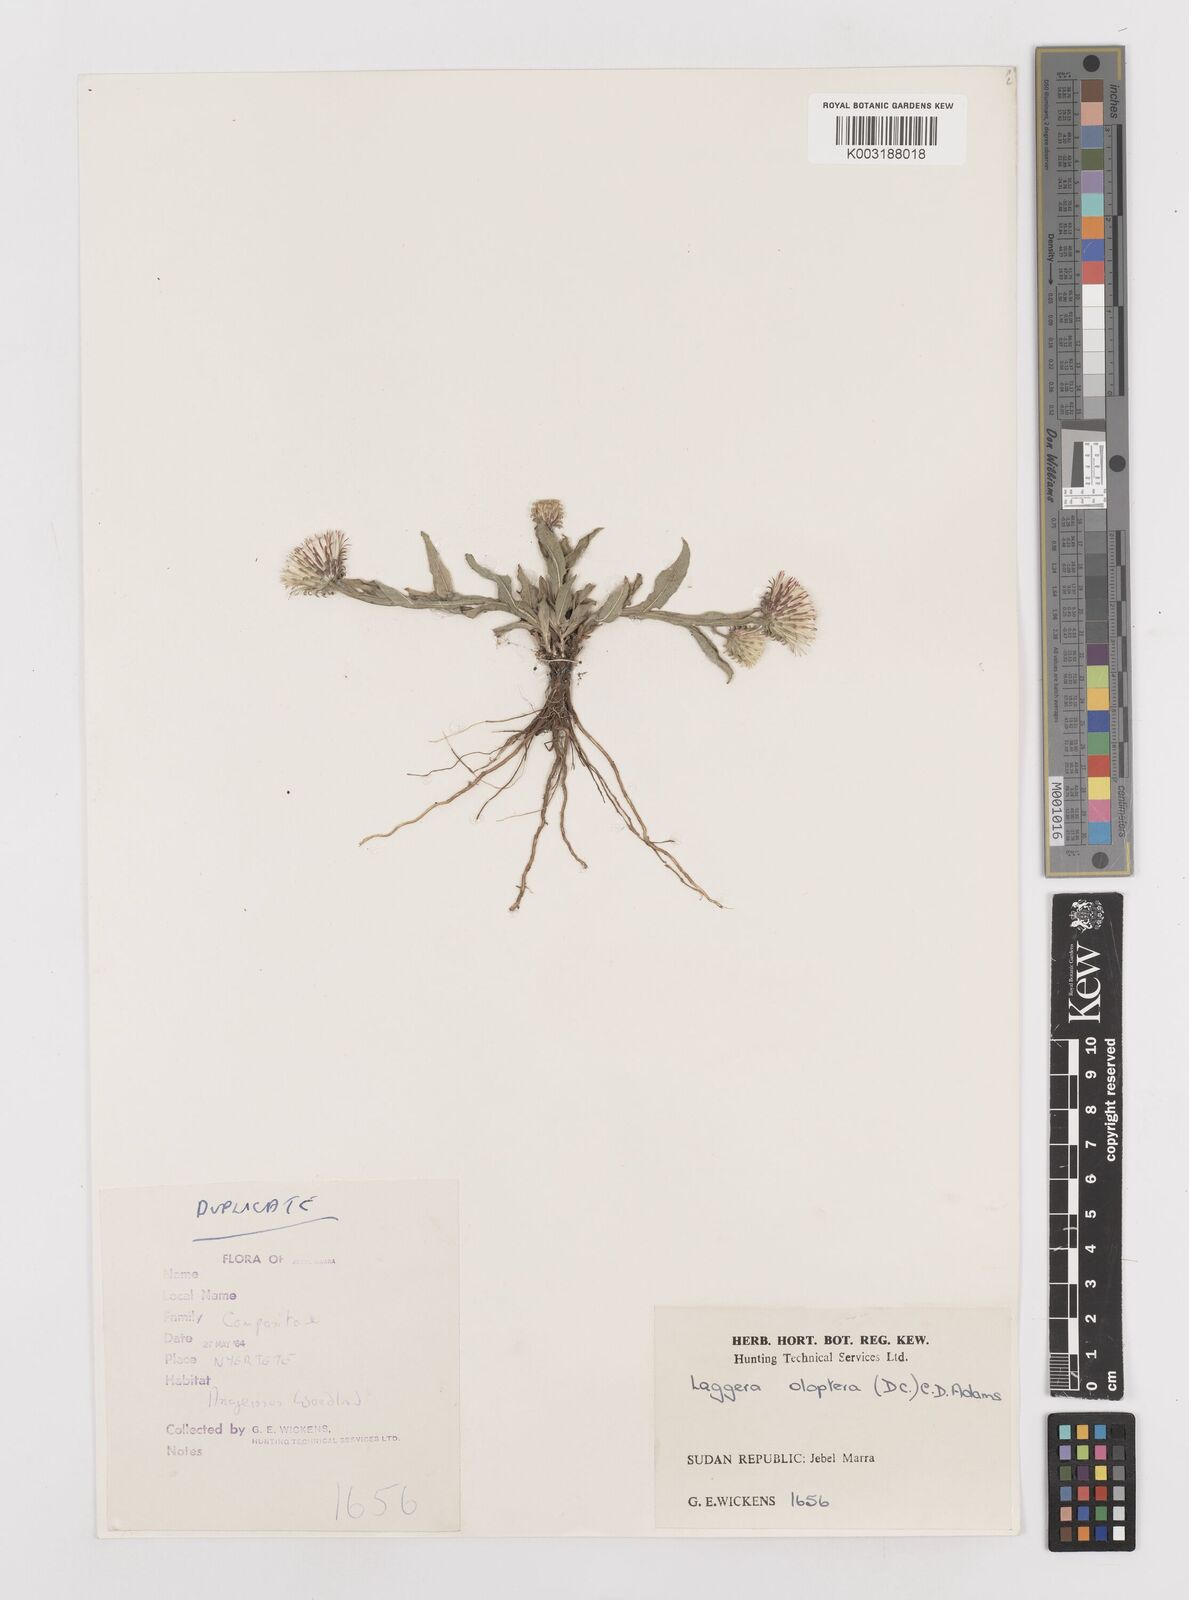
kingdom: Plantae
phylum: Tracheophyta
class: Magnoliopsida
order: Asterales
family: Asteraceae
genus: Laggera
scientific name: Laggera oloptera
